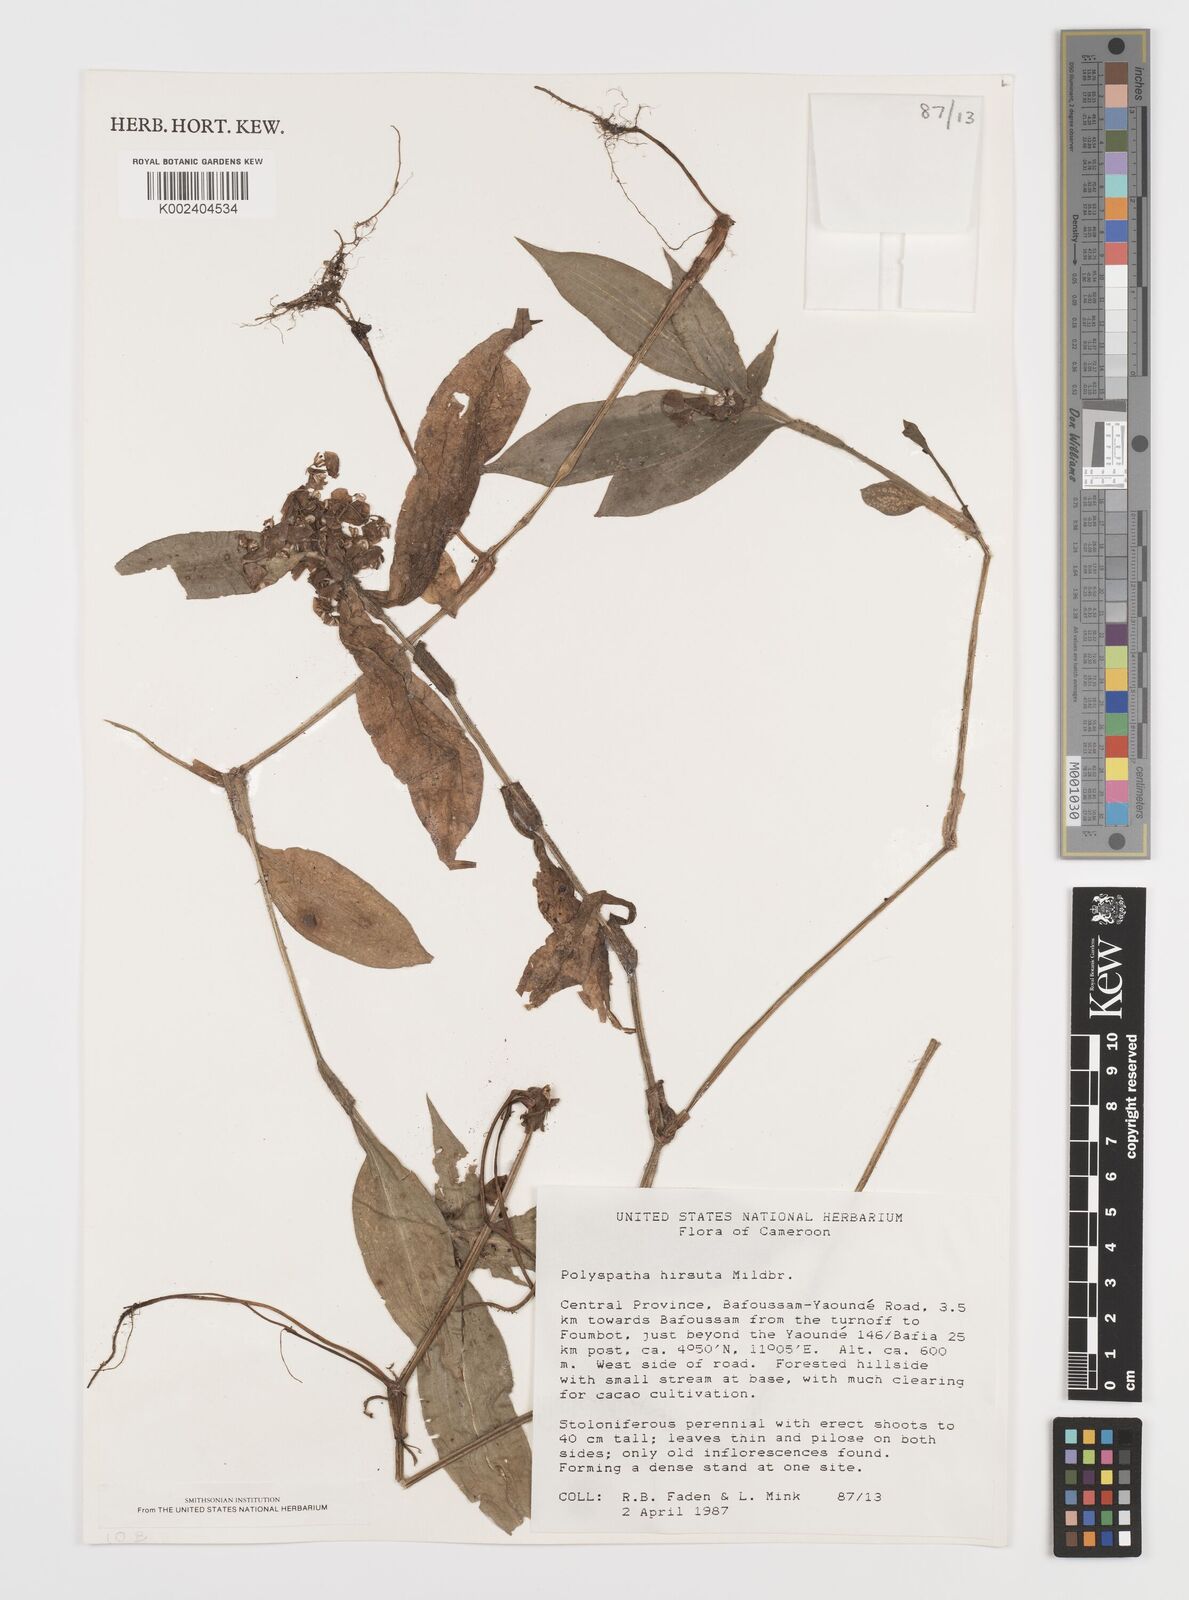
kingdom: Plantae
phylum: Tracheophyta
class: Liliopsida
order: Commelinales
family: Commelinaceae
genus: Polyspatha
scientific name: Polyspatha hirsuta
